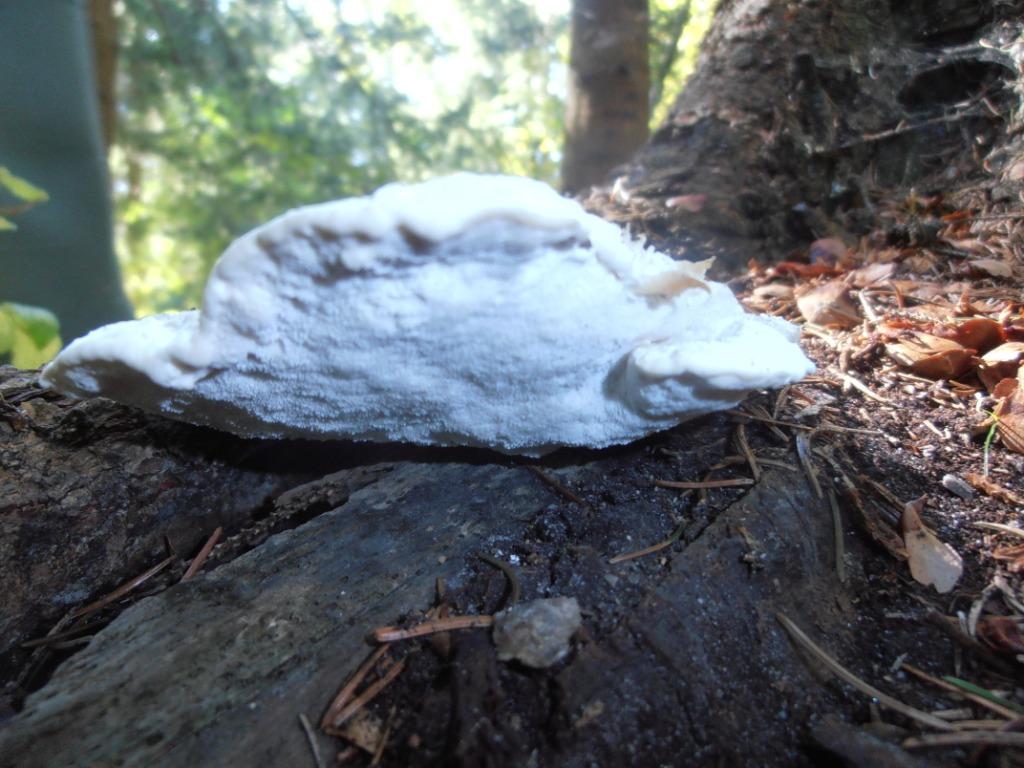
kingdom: Fungi
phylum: Basidiomycota
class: Agaricomycetes
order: Polyporales
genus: Amaropostia
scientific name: Amaropostia stiptica
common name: bitter kødporesvamp
